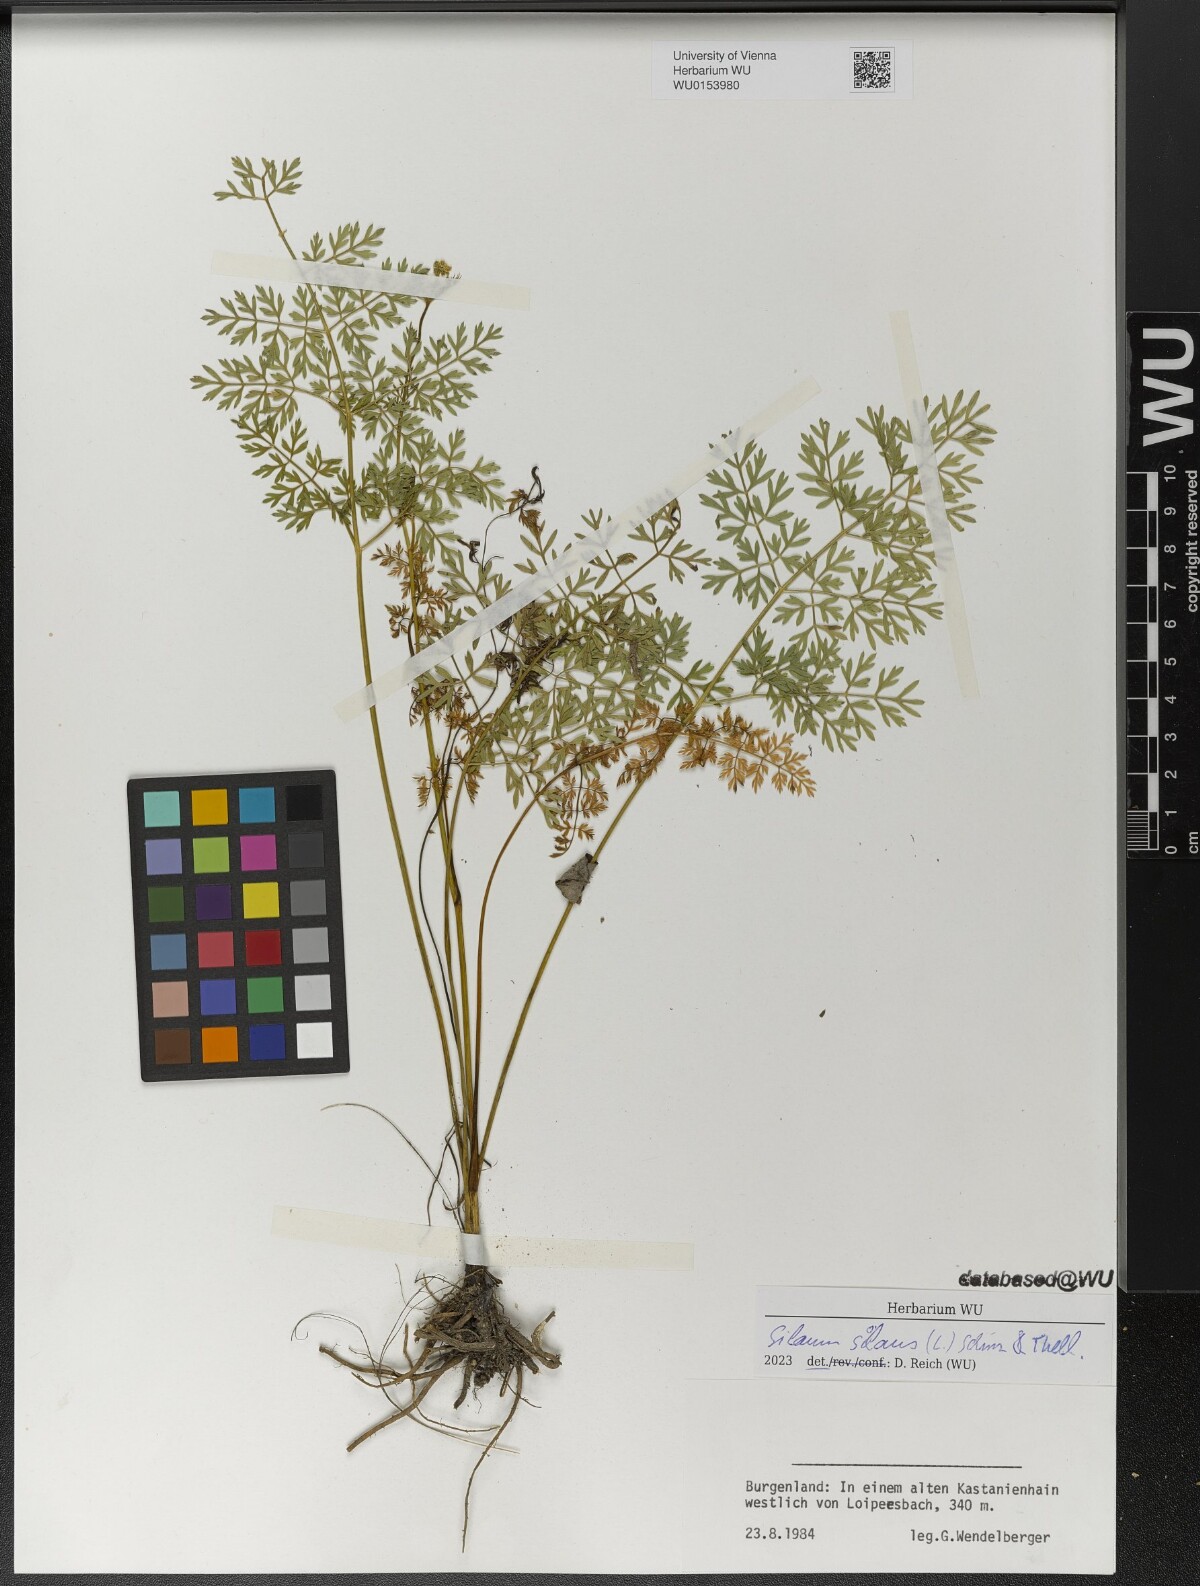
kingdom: Plantae
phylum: Tracheophyta
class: Magnoliopsida
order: Apiales
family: Apiaceae
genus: Silaum
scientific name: Silaum silaus
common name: Pepper-saxifrage
